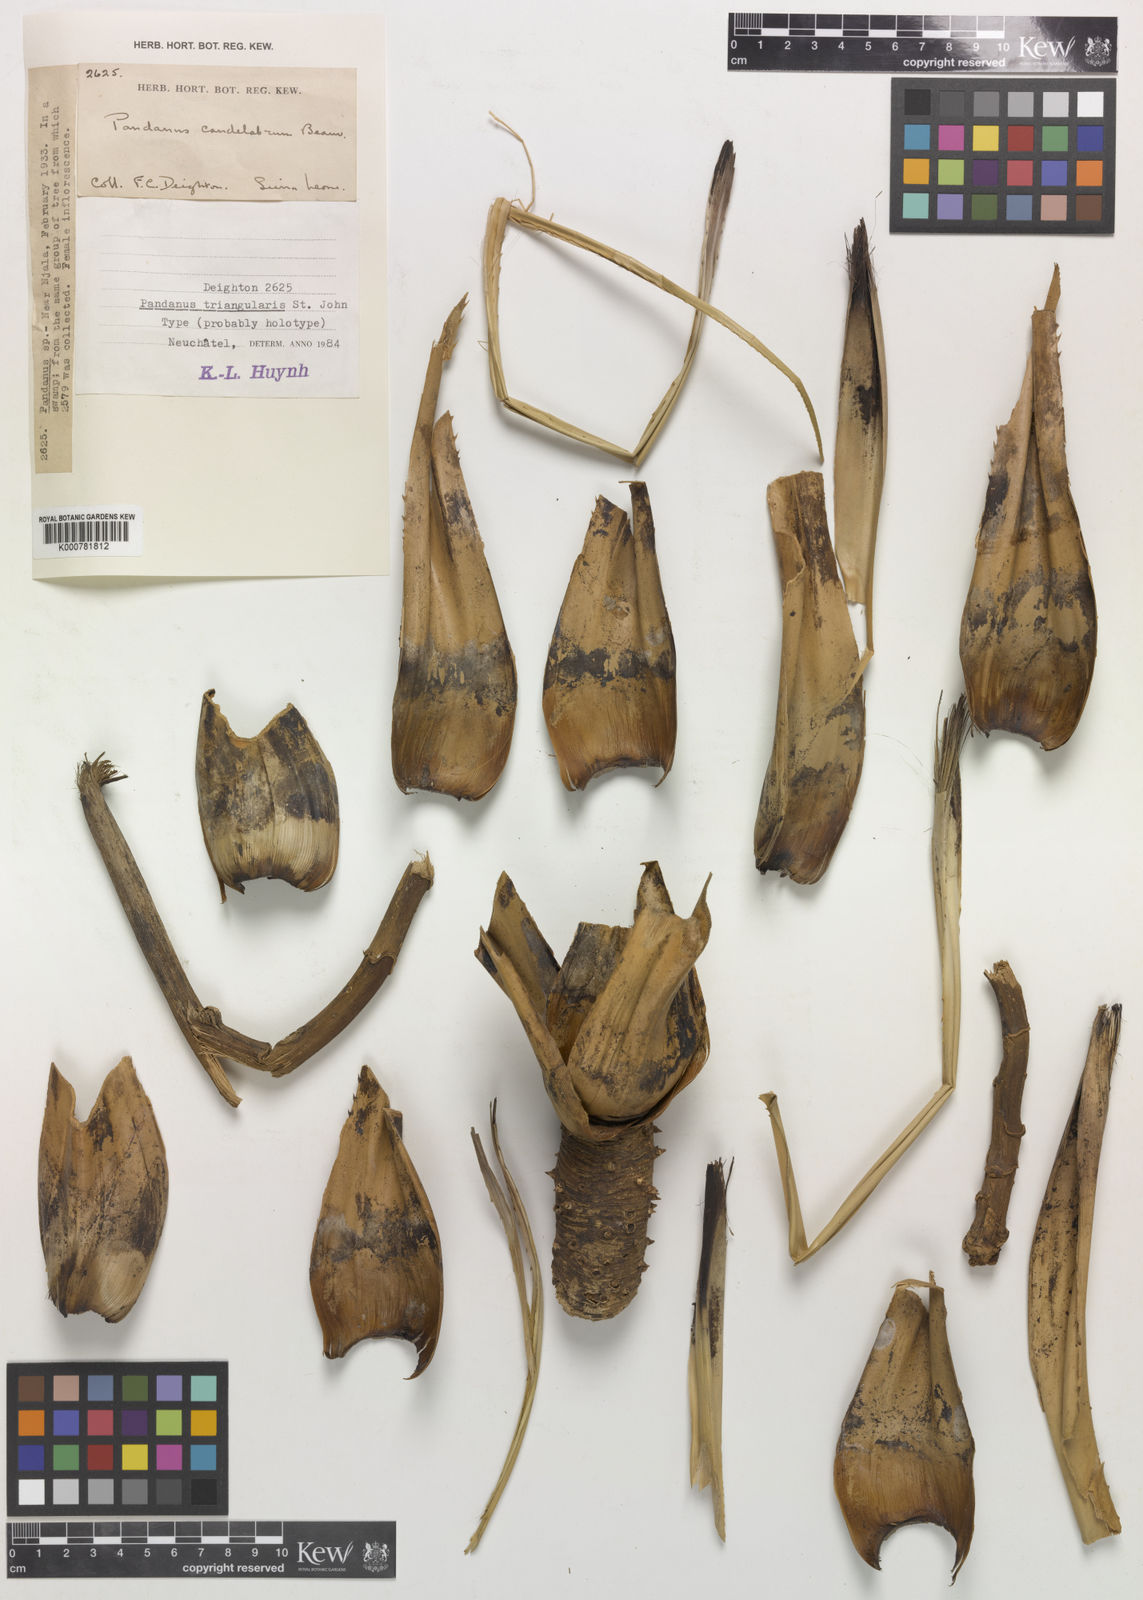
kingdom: Plantae
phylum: Tracheophyta
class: Liliopsida
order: Pandanales
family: Pandanaceae
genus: Pandanus
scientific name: Pandanus candelabrum
